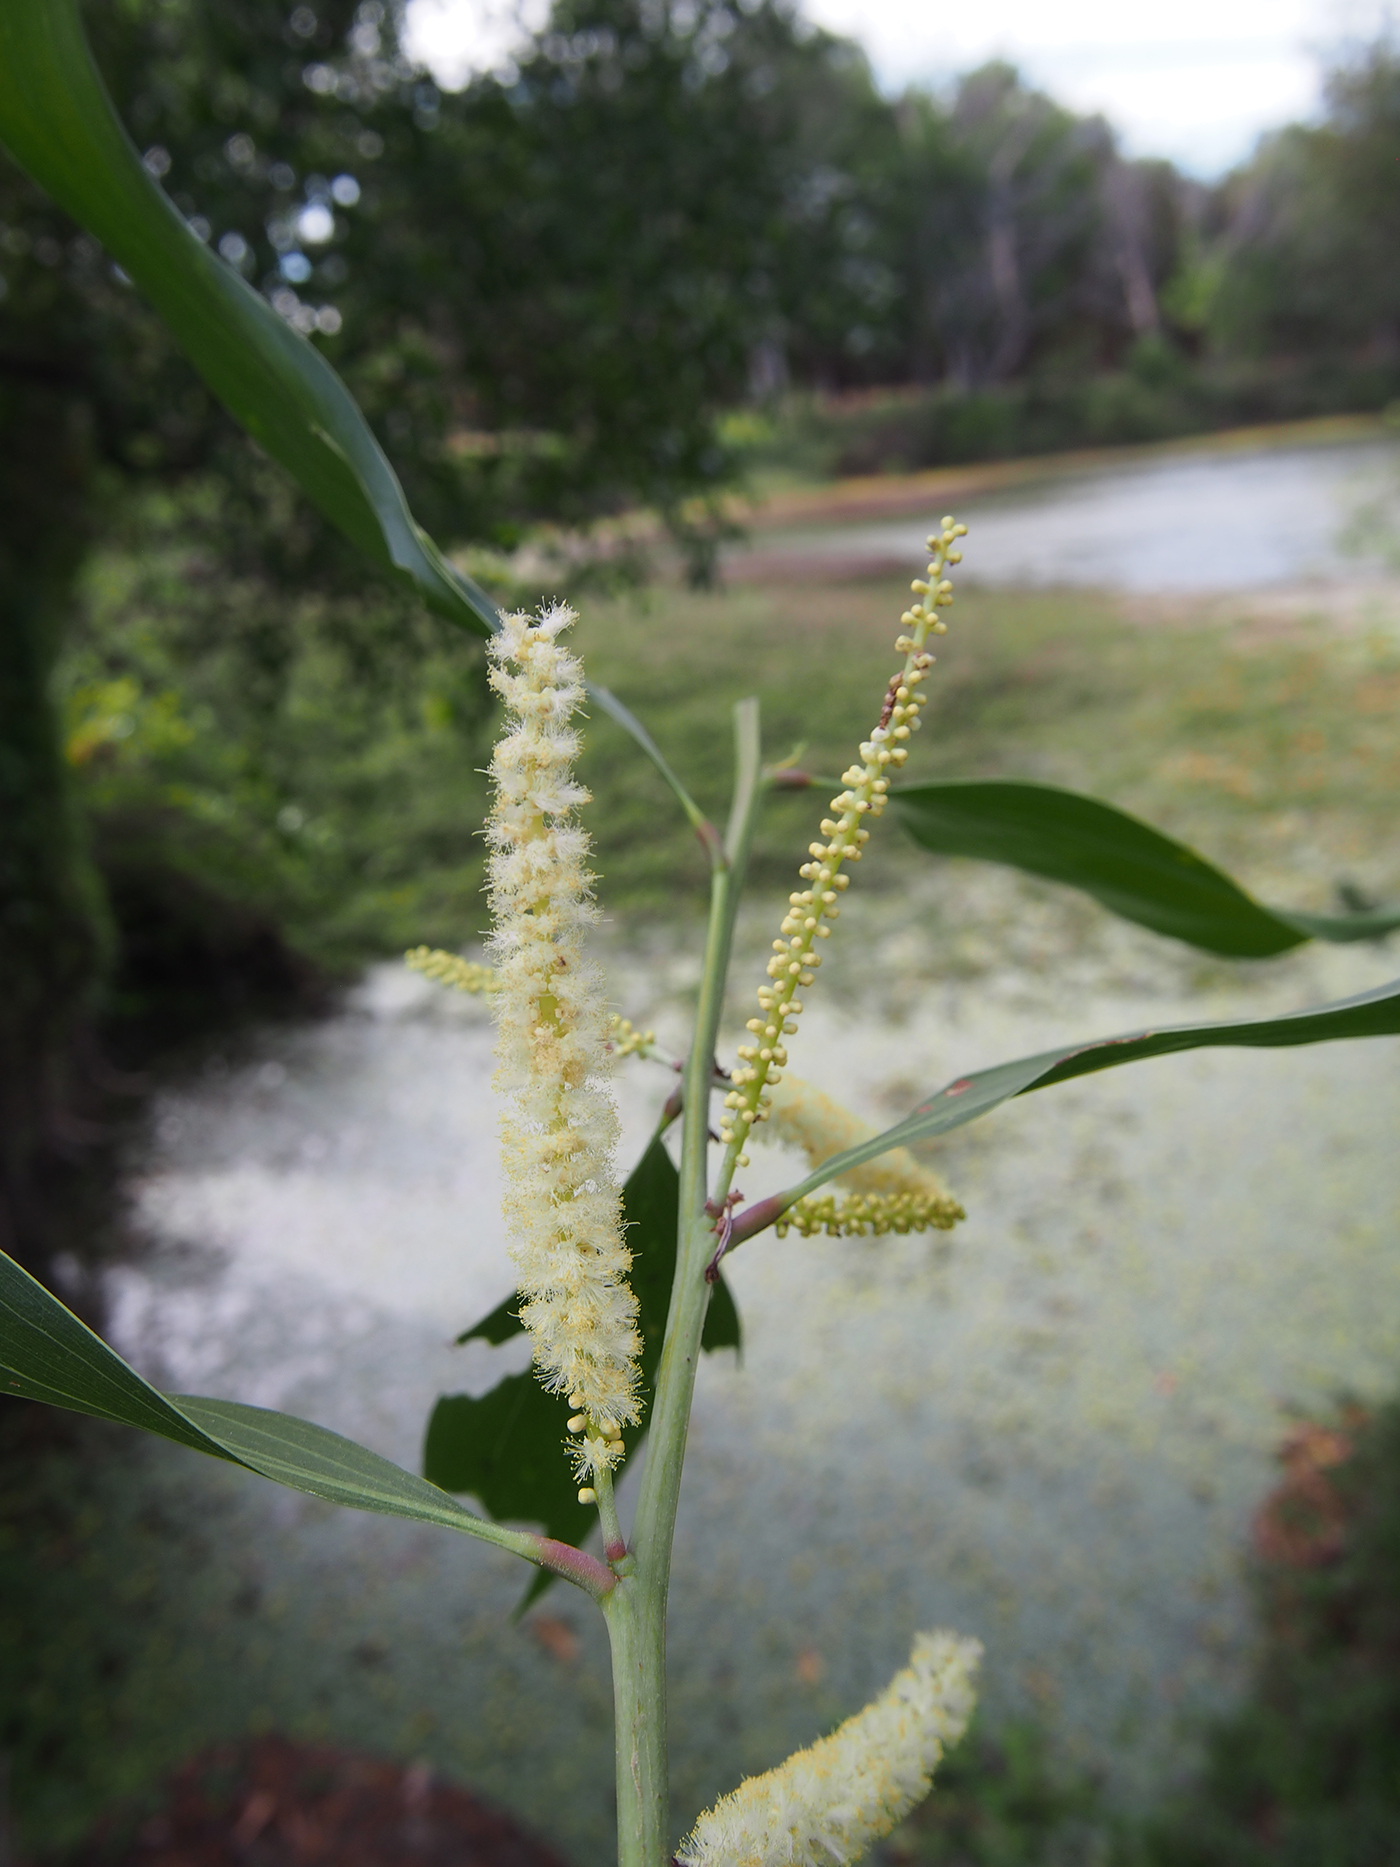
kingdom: Plantae
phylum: Tracheophyta
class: Magnoliopsida
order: Fabales
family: Fabaceae
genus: Acacia
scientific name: Acacia mangium
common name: Black wattle
